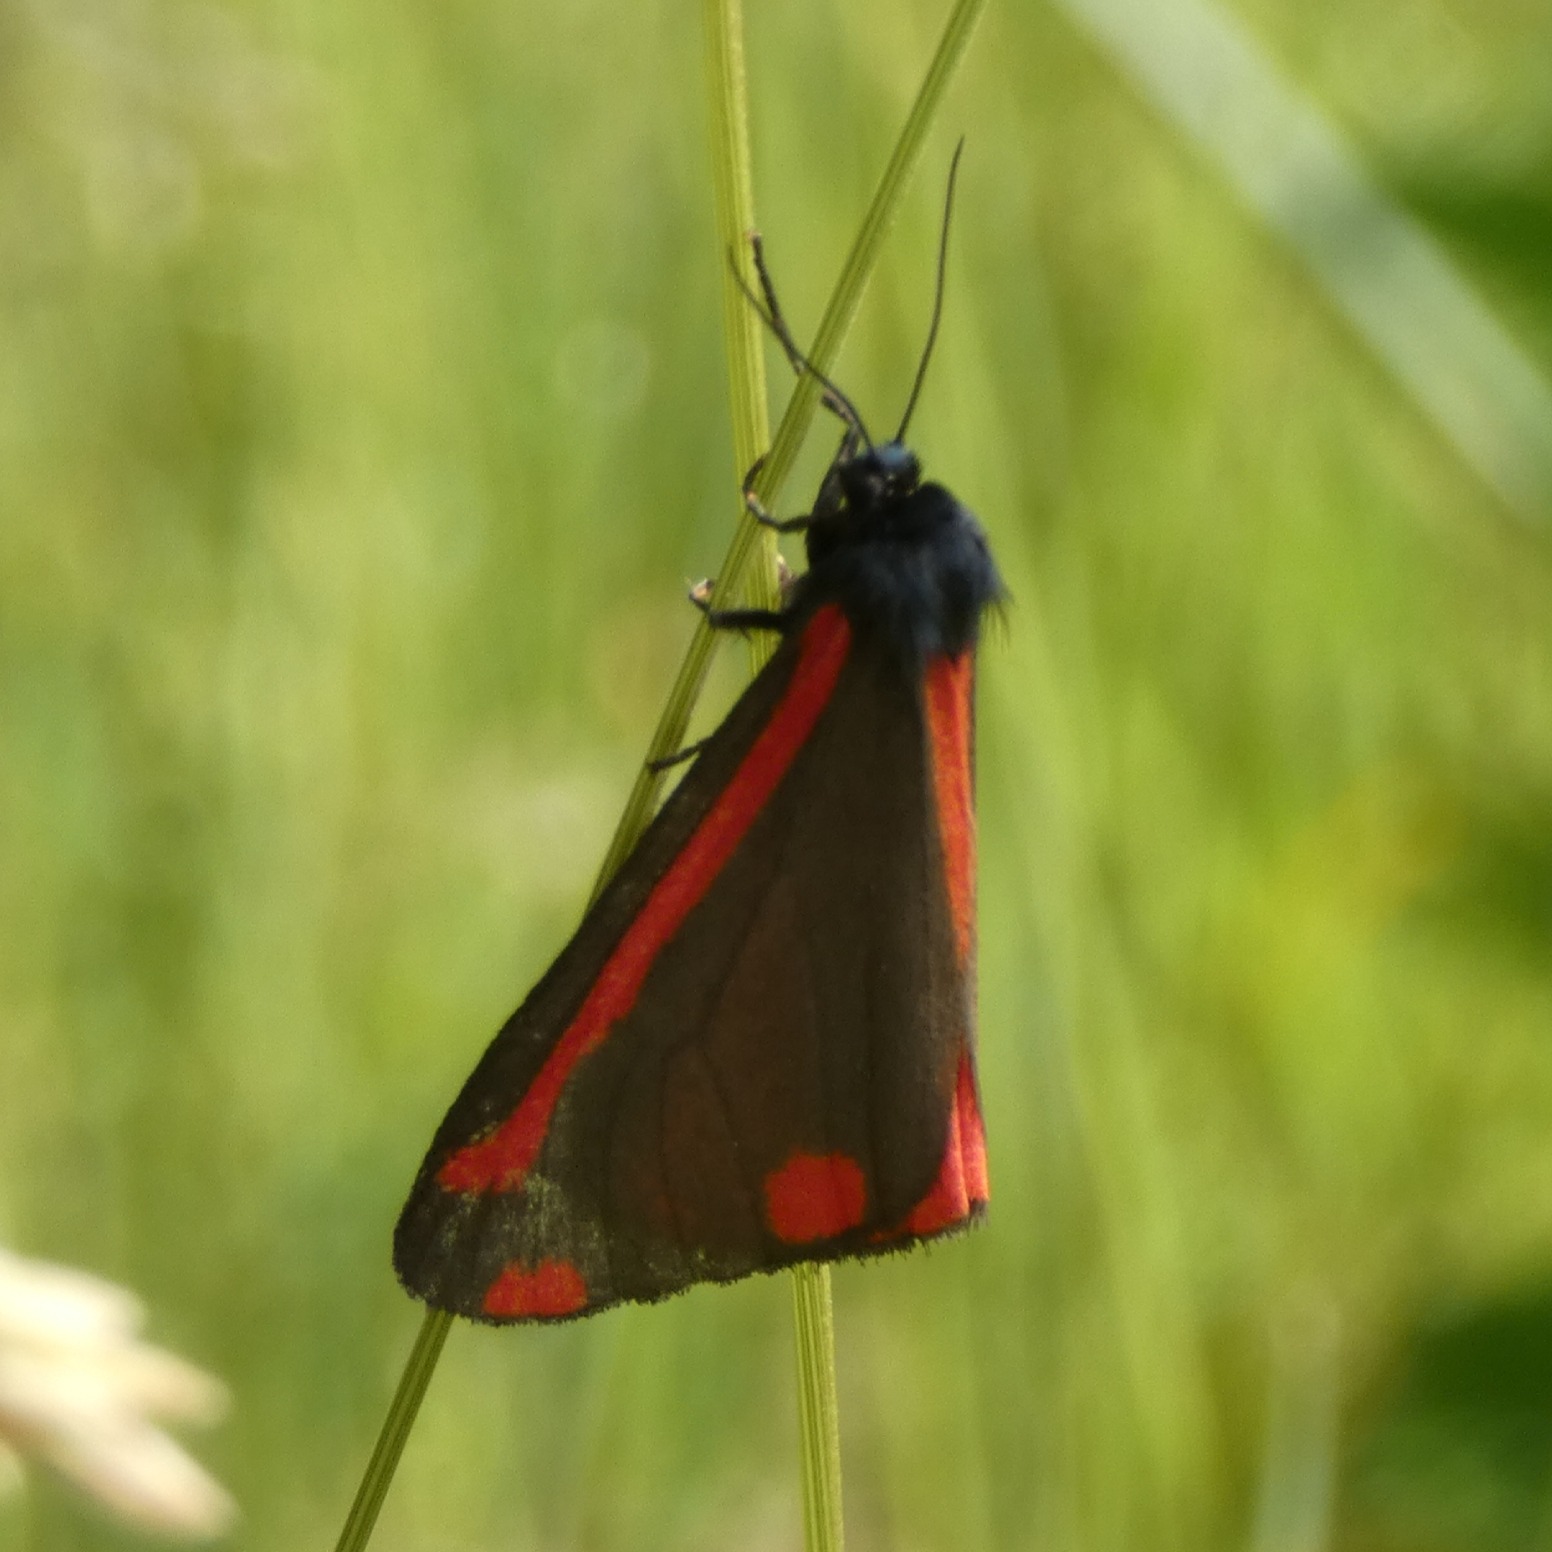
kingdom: Animalia
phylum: Arthropoda
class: Insecta
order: Lepidoptera
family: Erebidae
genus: Tyria
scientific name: Tyria jacobaeae
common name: Blodplet
